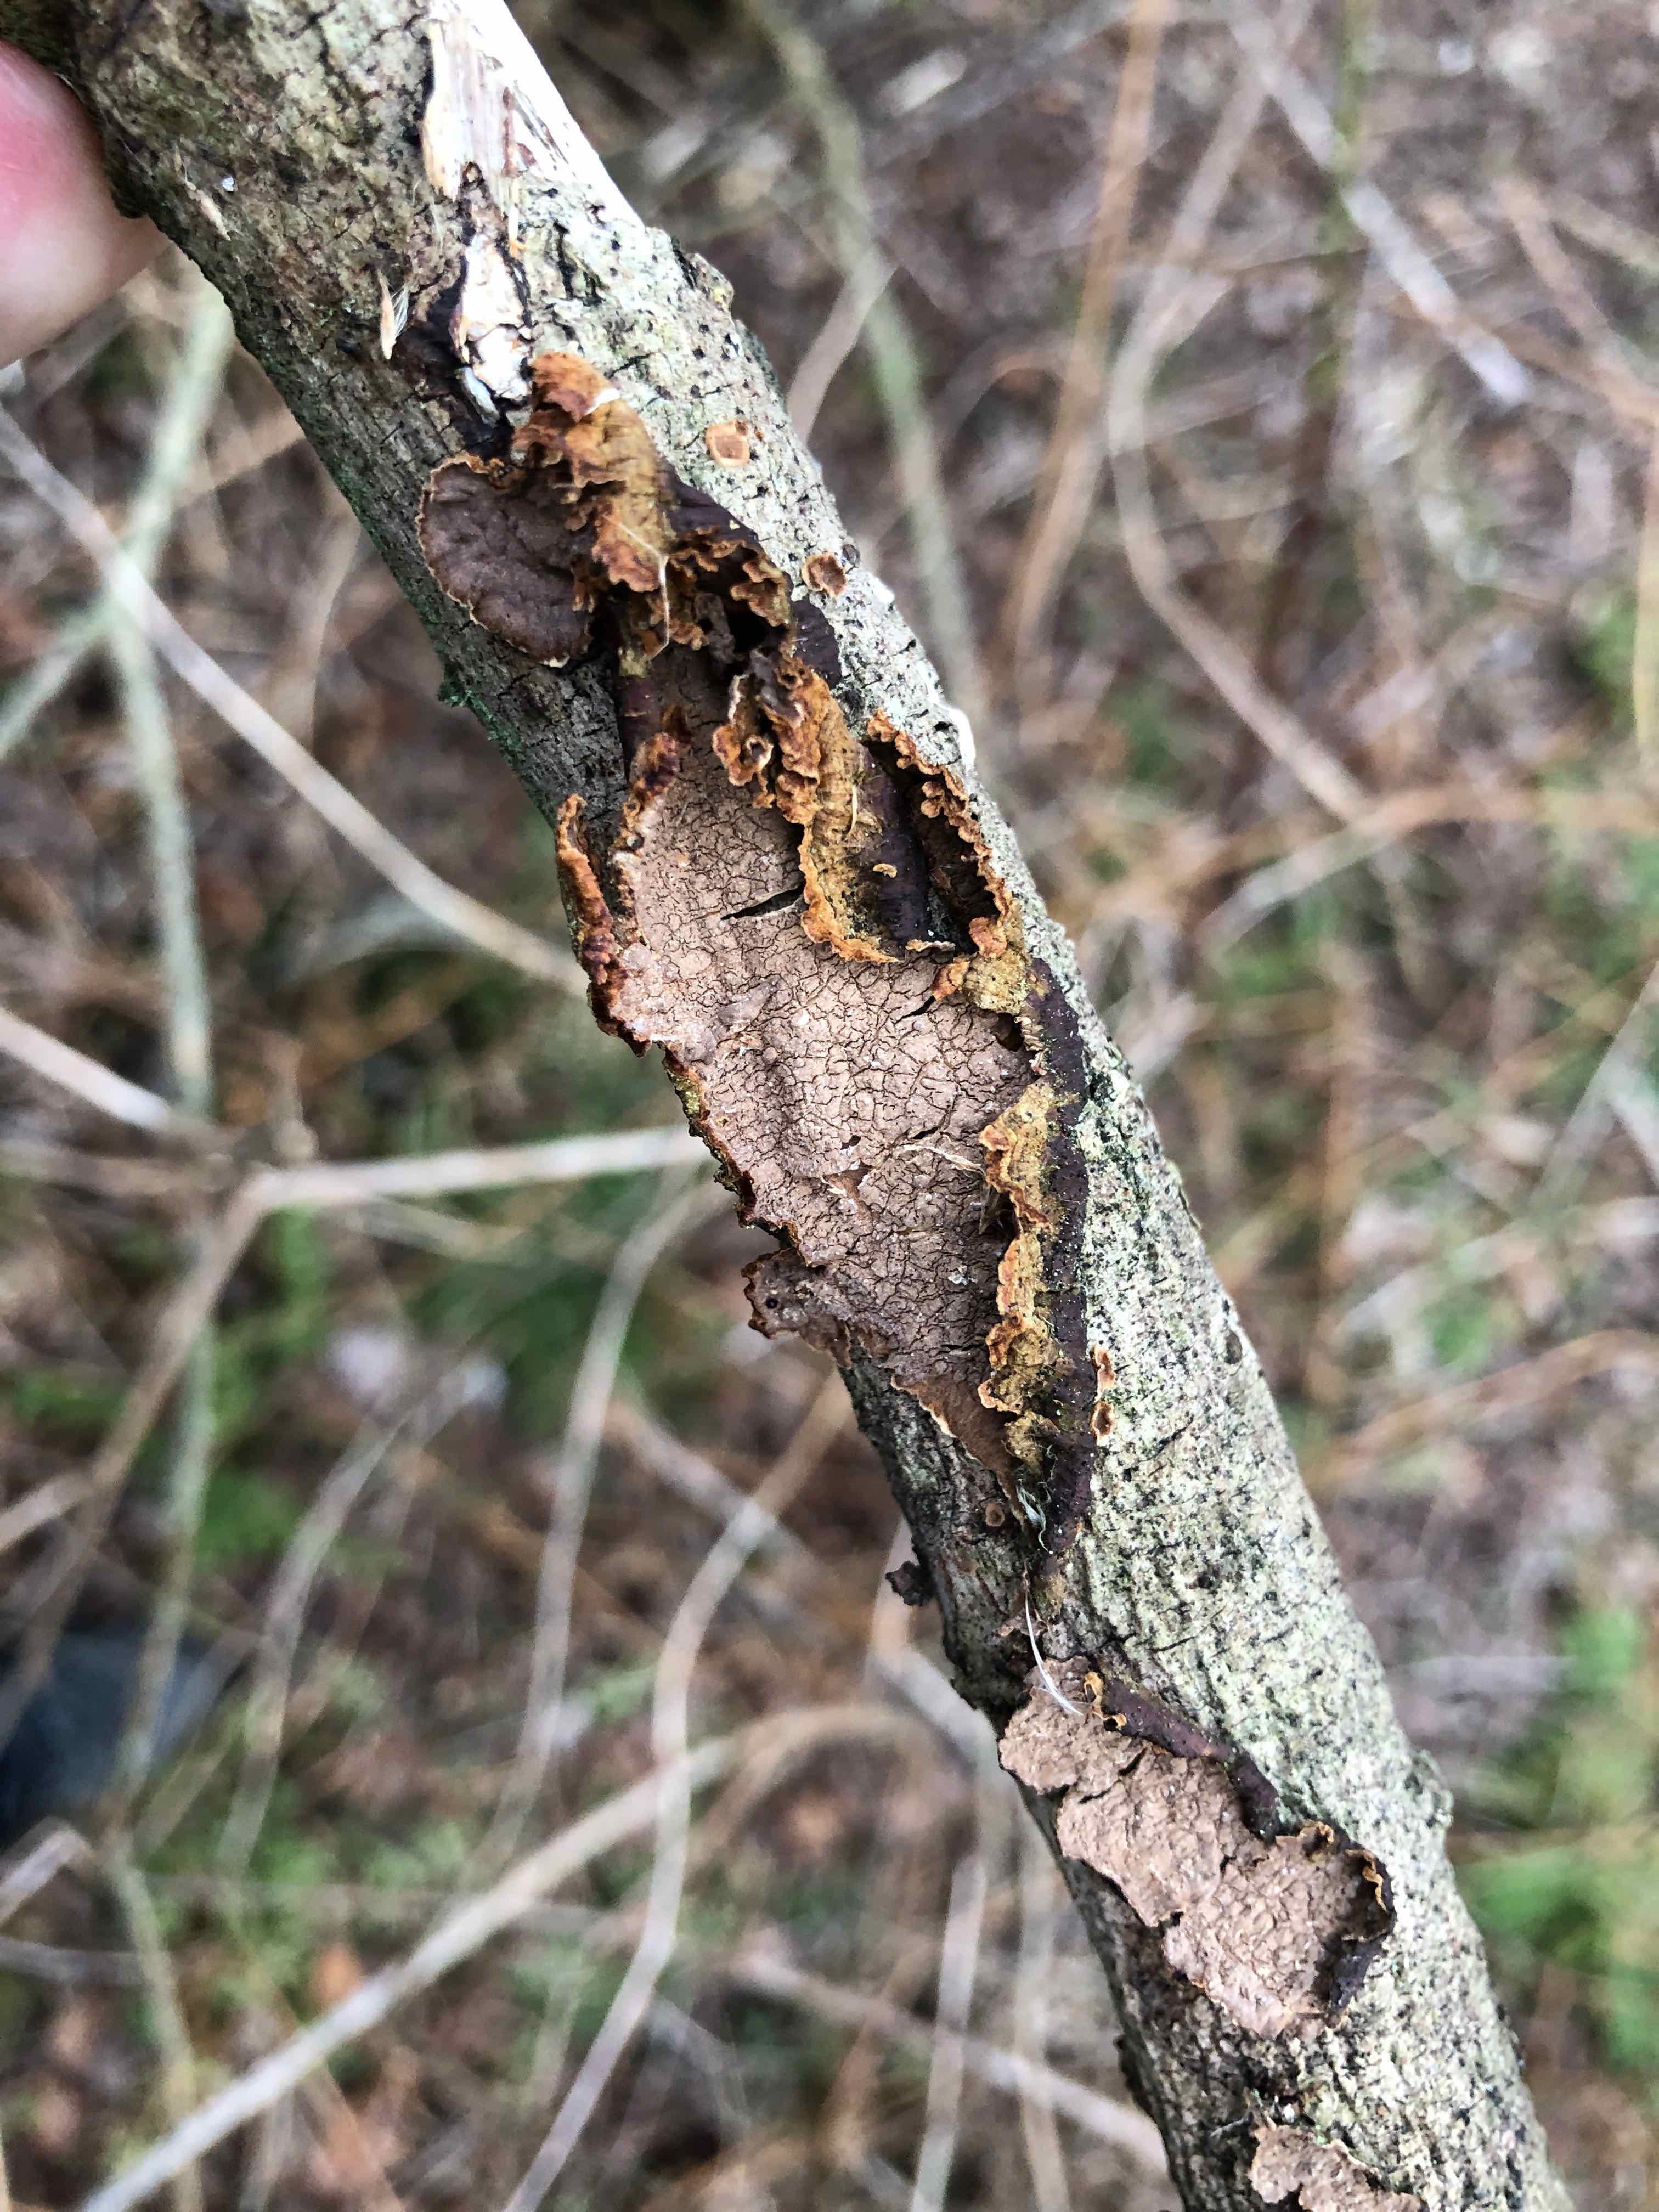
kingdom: Fungi
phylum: Basidiomycota
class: Agaricomycetes
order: Hymenochaetales
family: Hymenochaetaceae
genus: Hydnoporia
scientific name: Hydnoporia tabacina
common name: tobaksbrun ruslædersvamp
